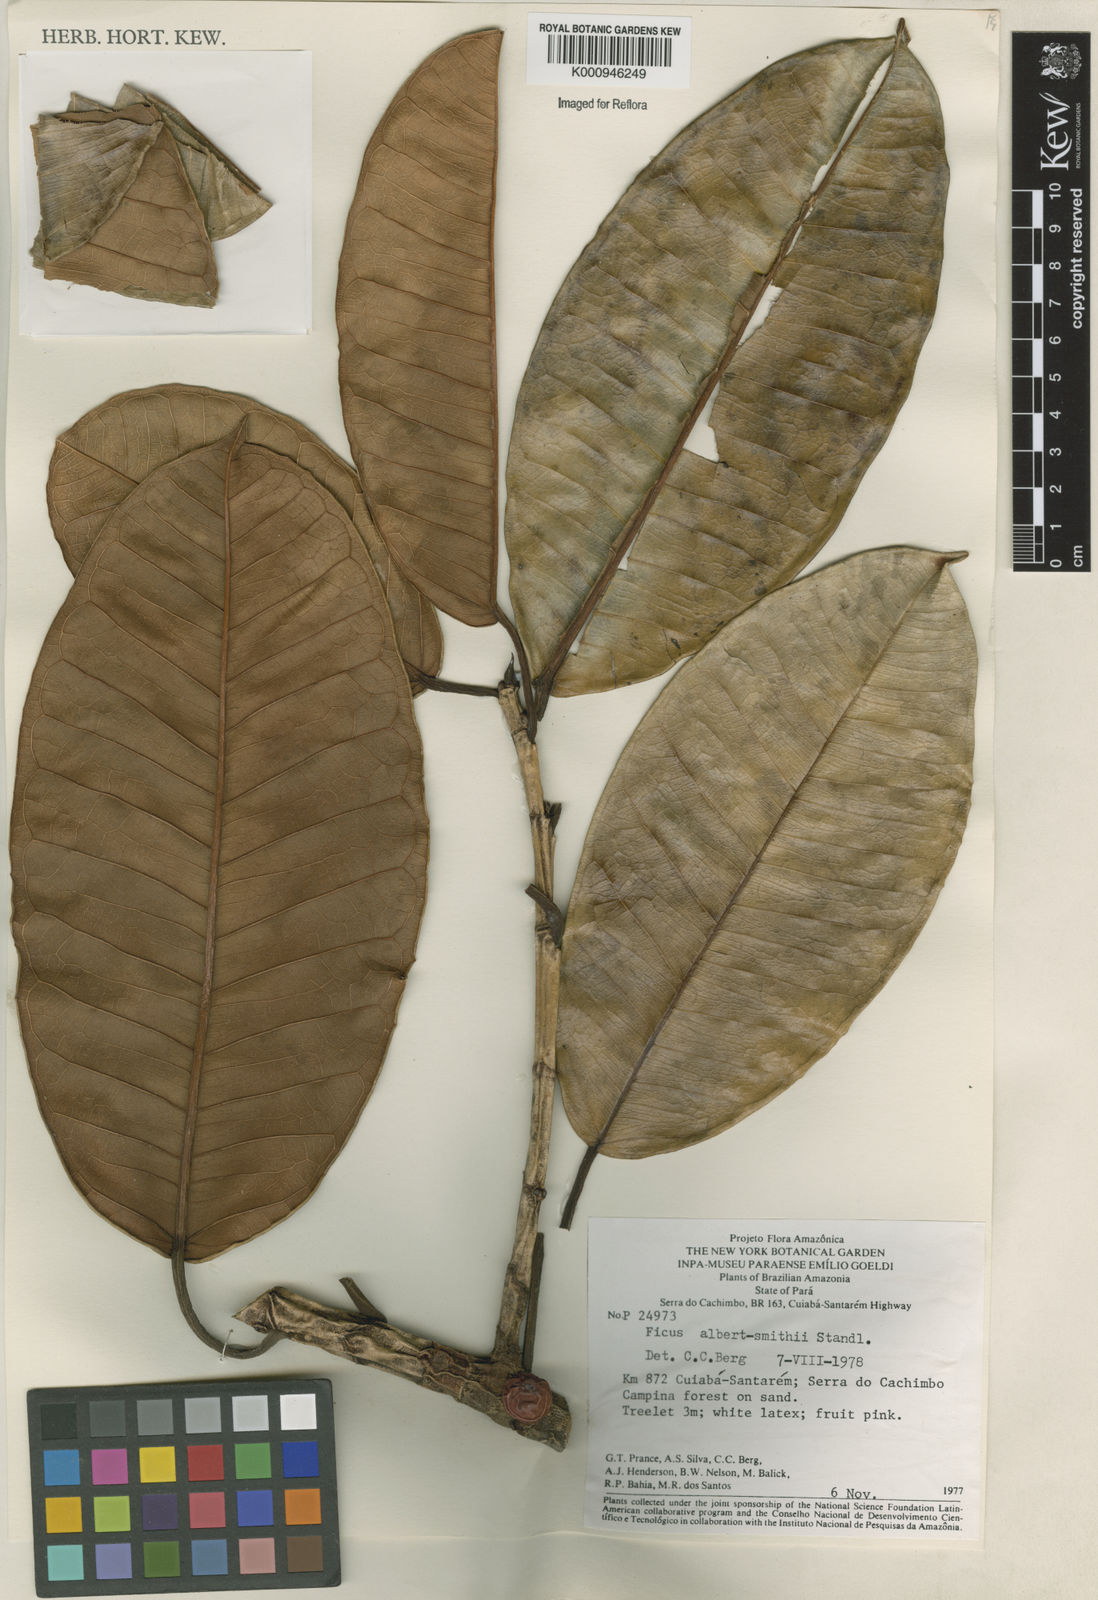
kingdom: Plantae
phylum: Tracheophyta
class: Magnoliopsida
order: Rosales
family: Moraceae
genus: Ficus
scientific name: Ficus albert-smithii
